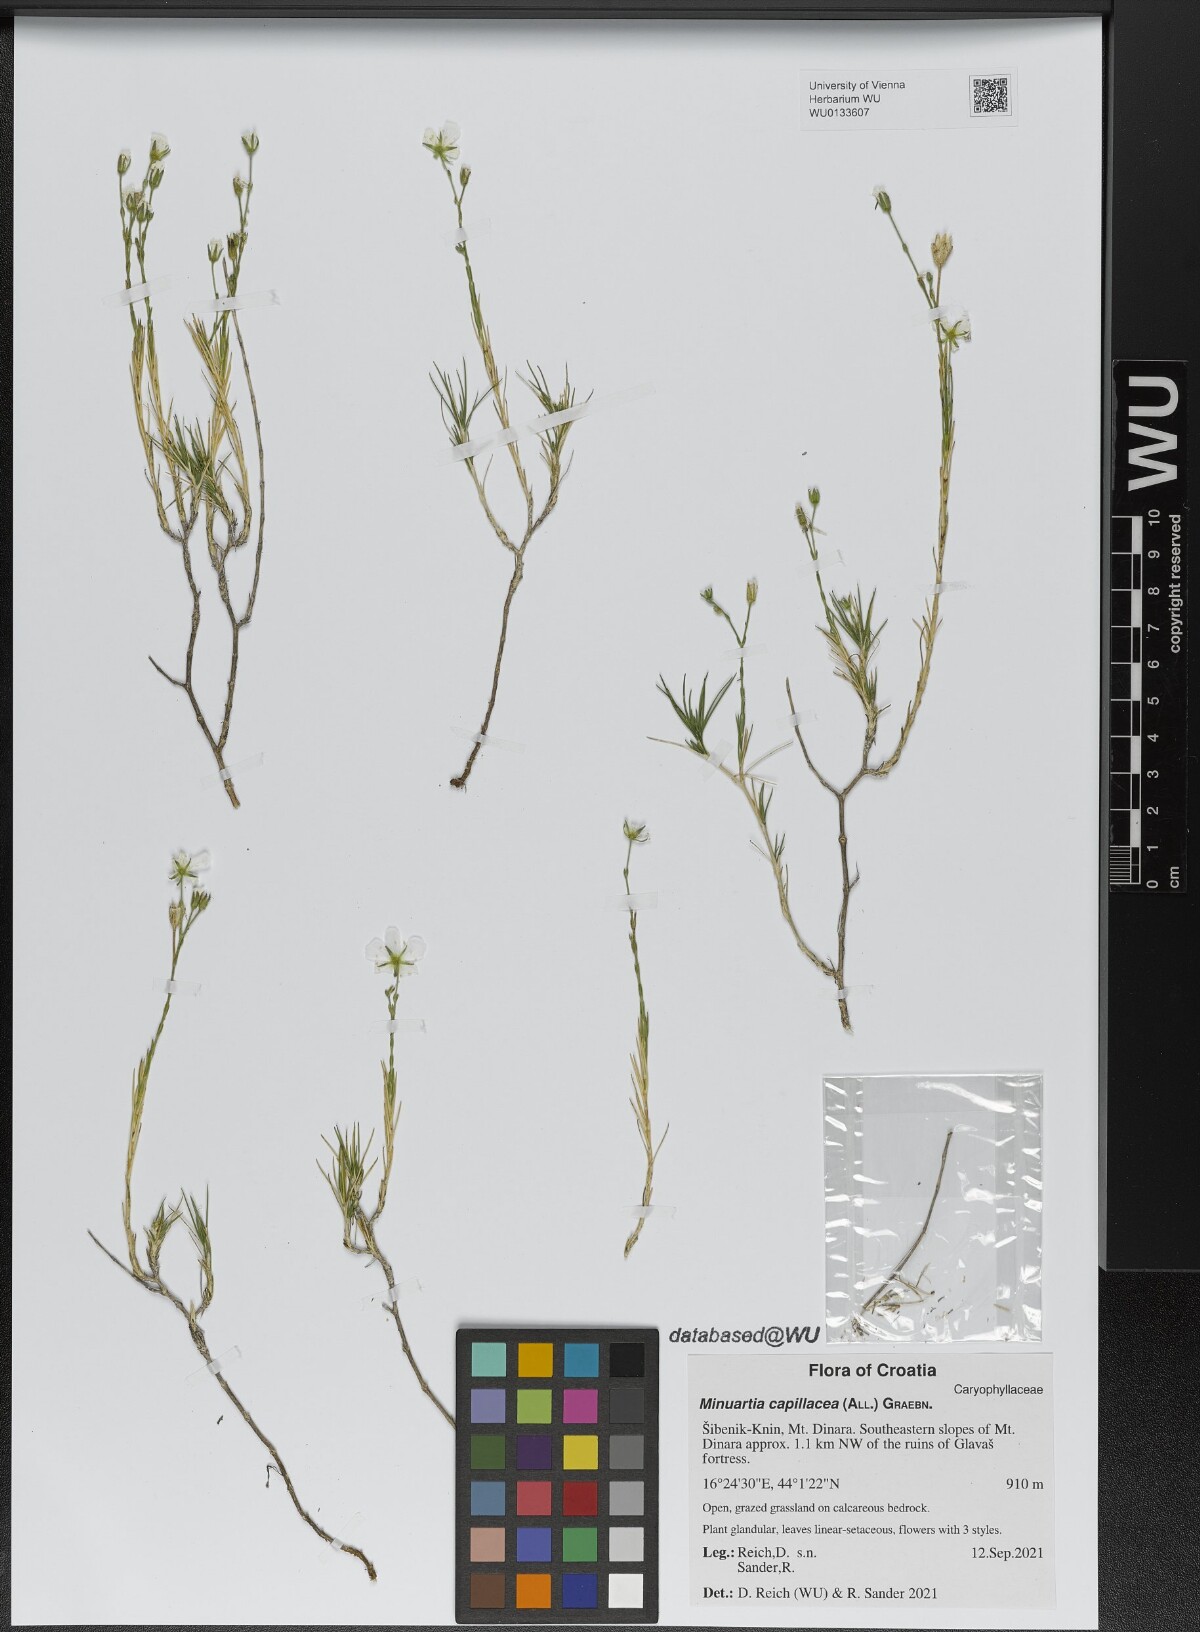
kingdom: Plantae
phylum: Tracheophyta
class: Magnoliopsida
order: Caryophyllales
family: Caryophyllaceae
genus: Cherleria
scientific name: Cherleria capillacea
